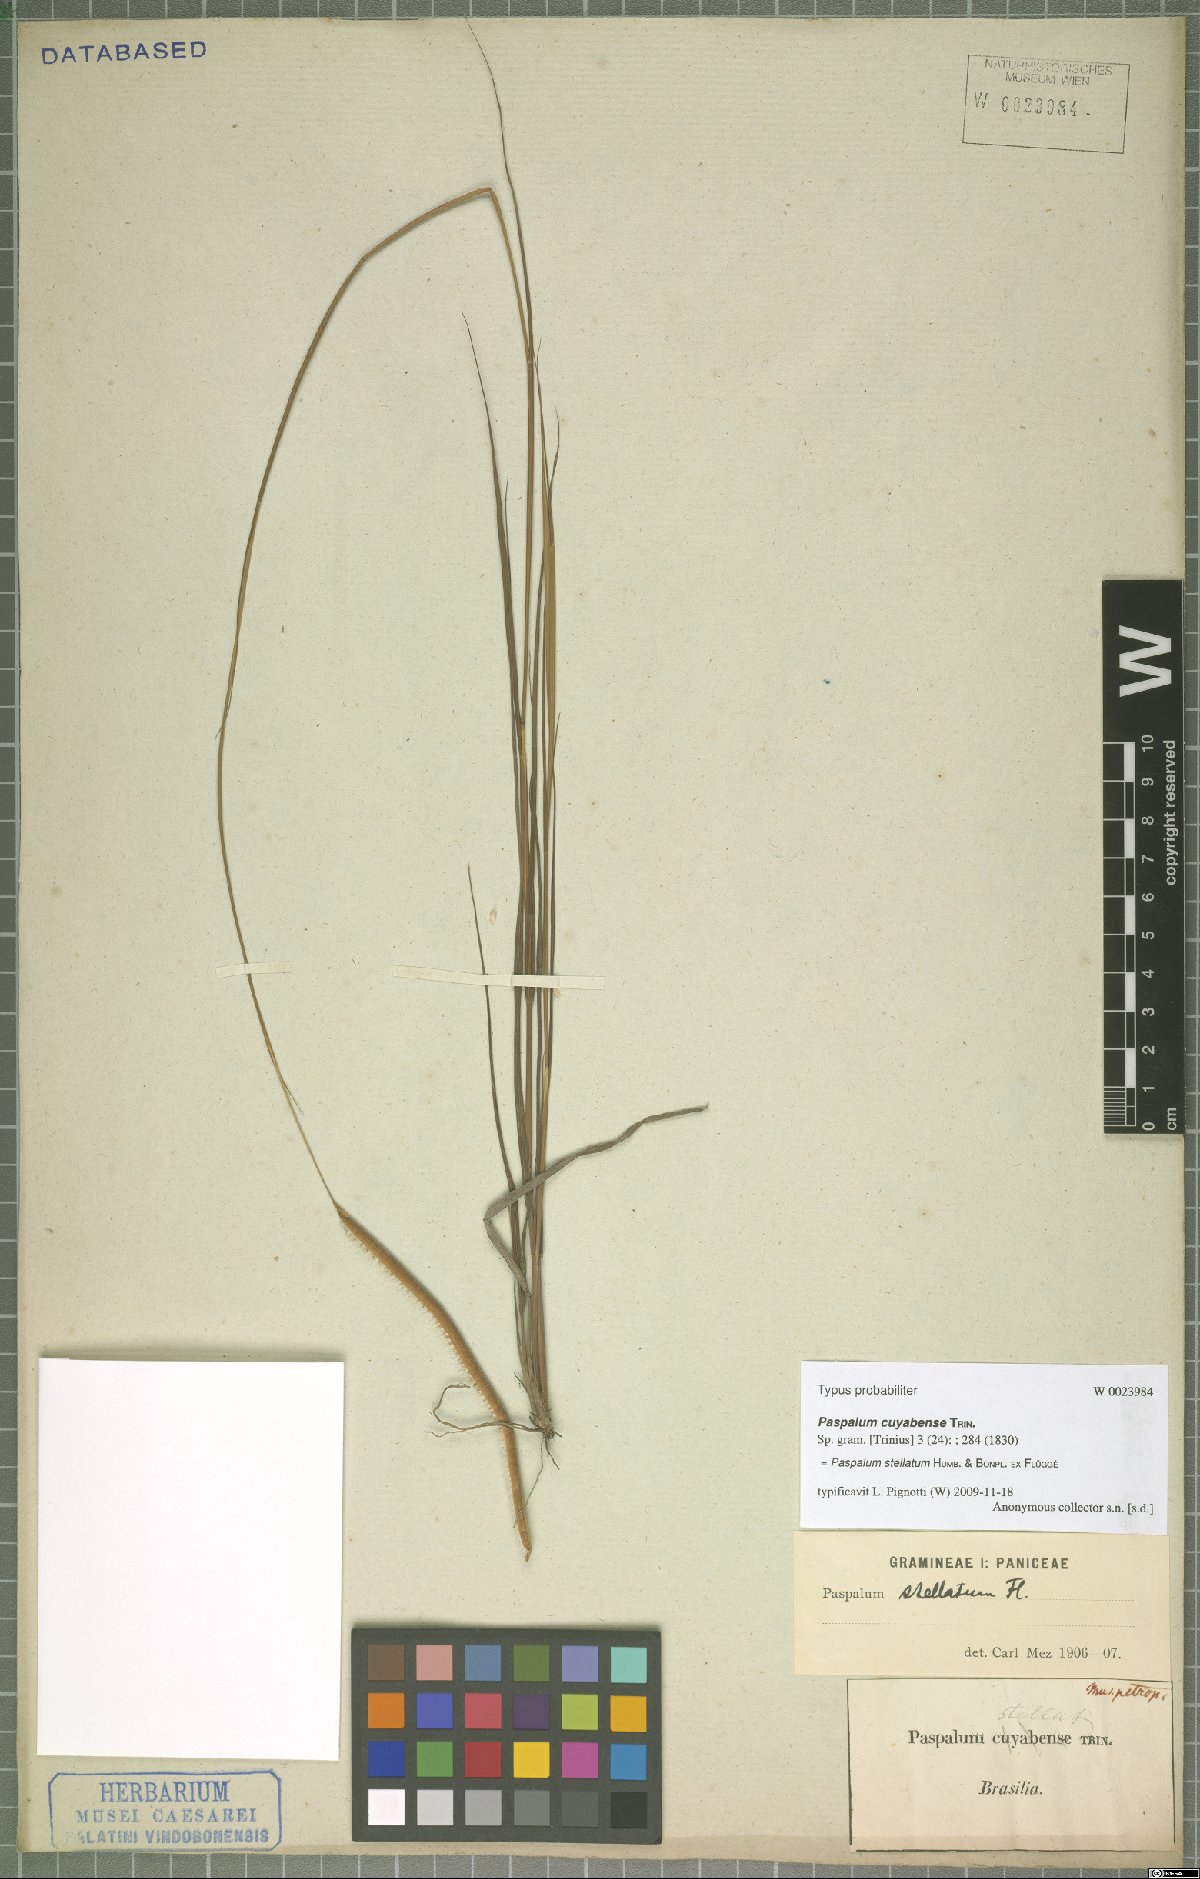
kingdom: Plantae
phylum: Tracheophyta
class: Liliopsida
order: Poales
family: Poaceae
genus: Paspalum
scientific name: Paspalum stellatum
